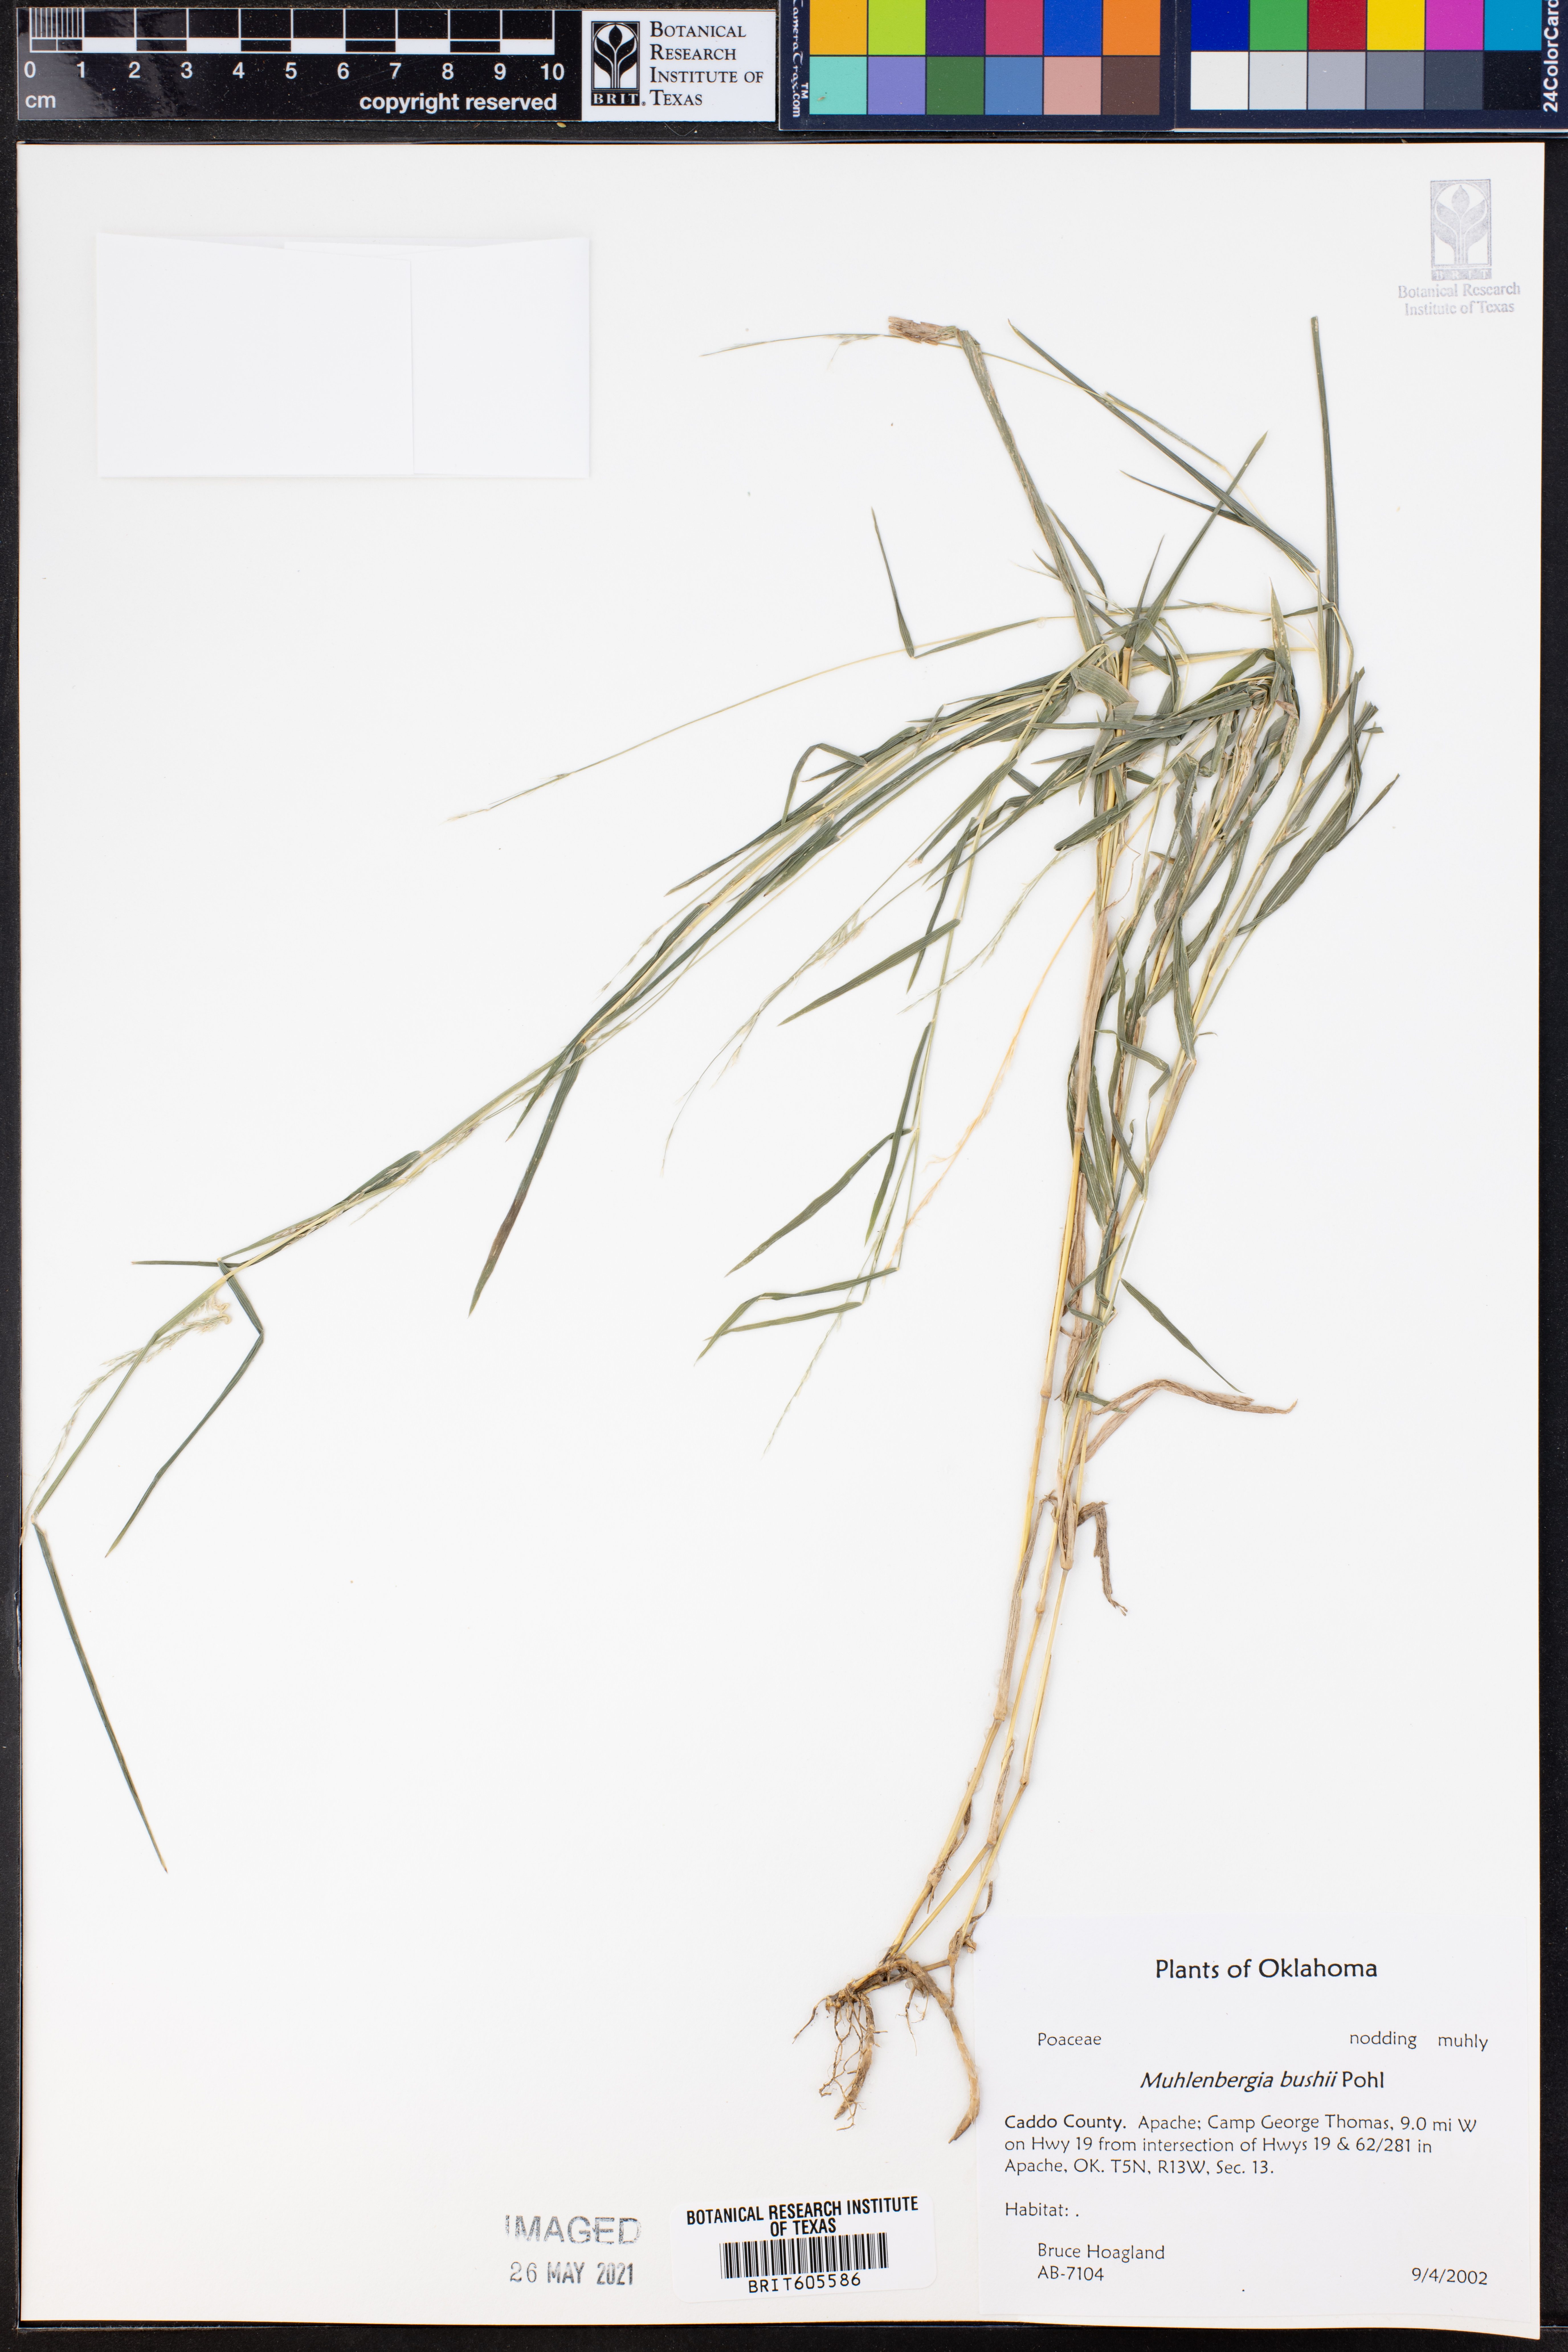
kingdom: Plantae
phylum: Tracheophyta
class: Liliopsida
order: Poales
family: Poaceae
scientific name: Poaceae
